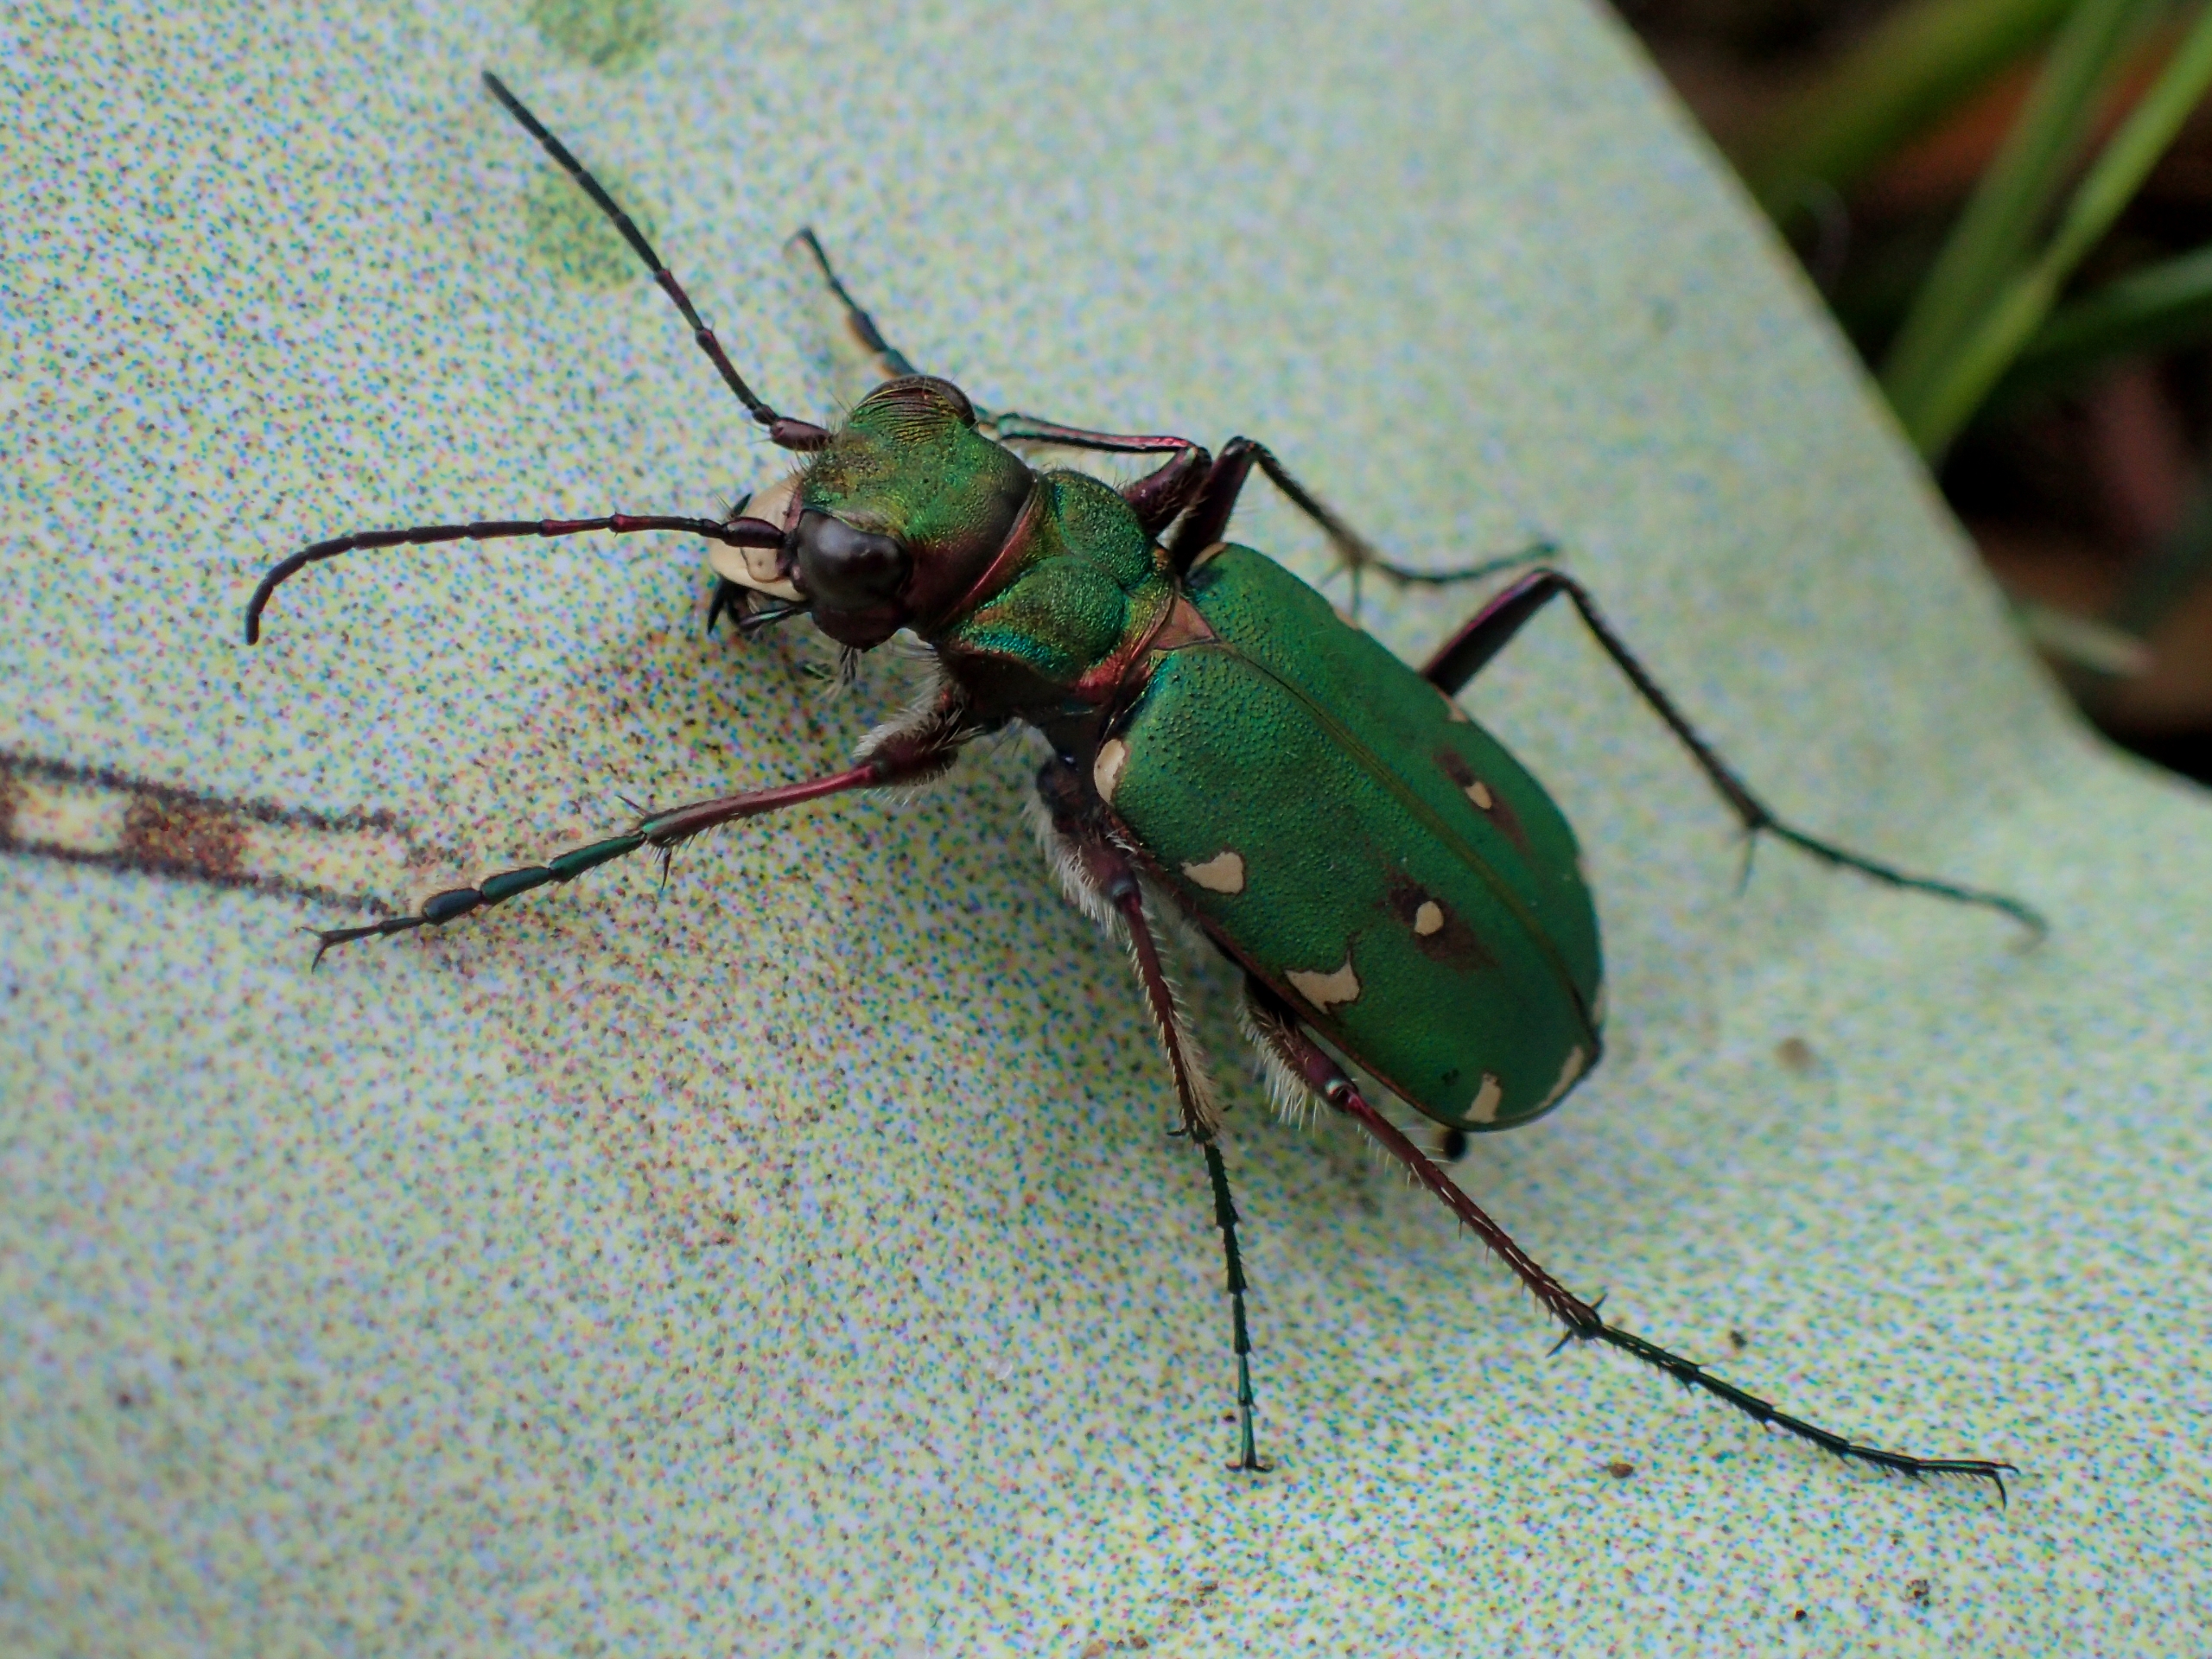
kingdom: Animalia
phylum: Arthropoda
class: Insecta
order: Coleoptera
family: Carabidae
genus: Cicindela
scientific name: Cicindela campestris
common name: Grøn sandspringer
